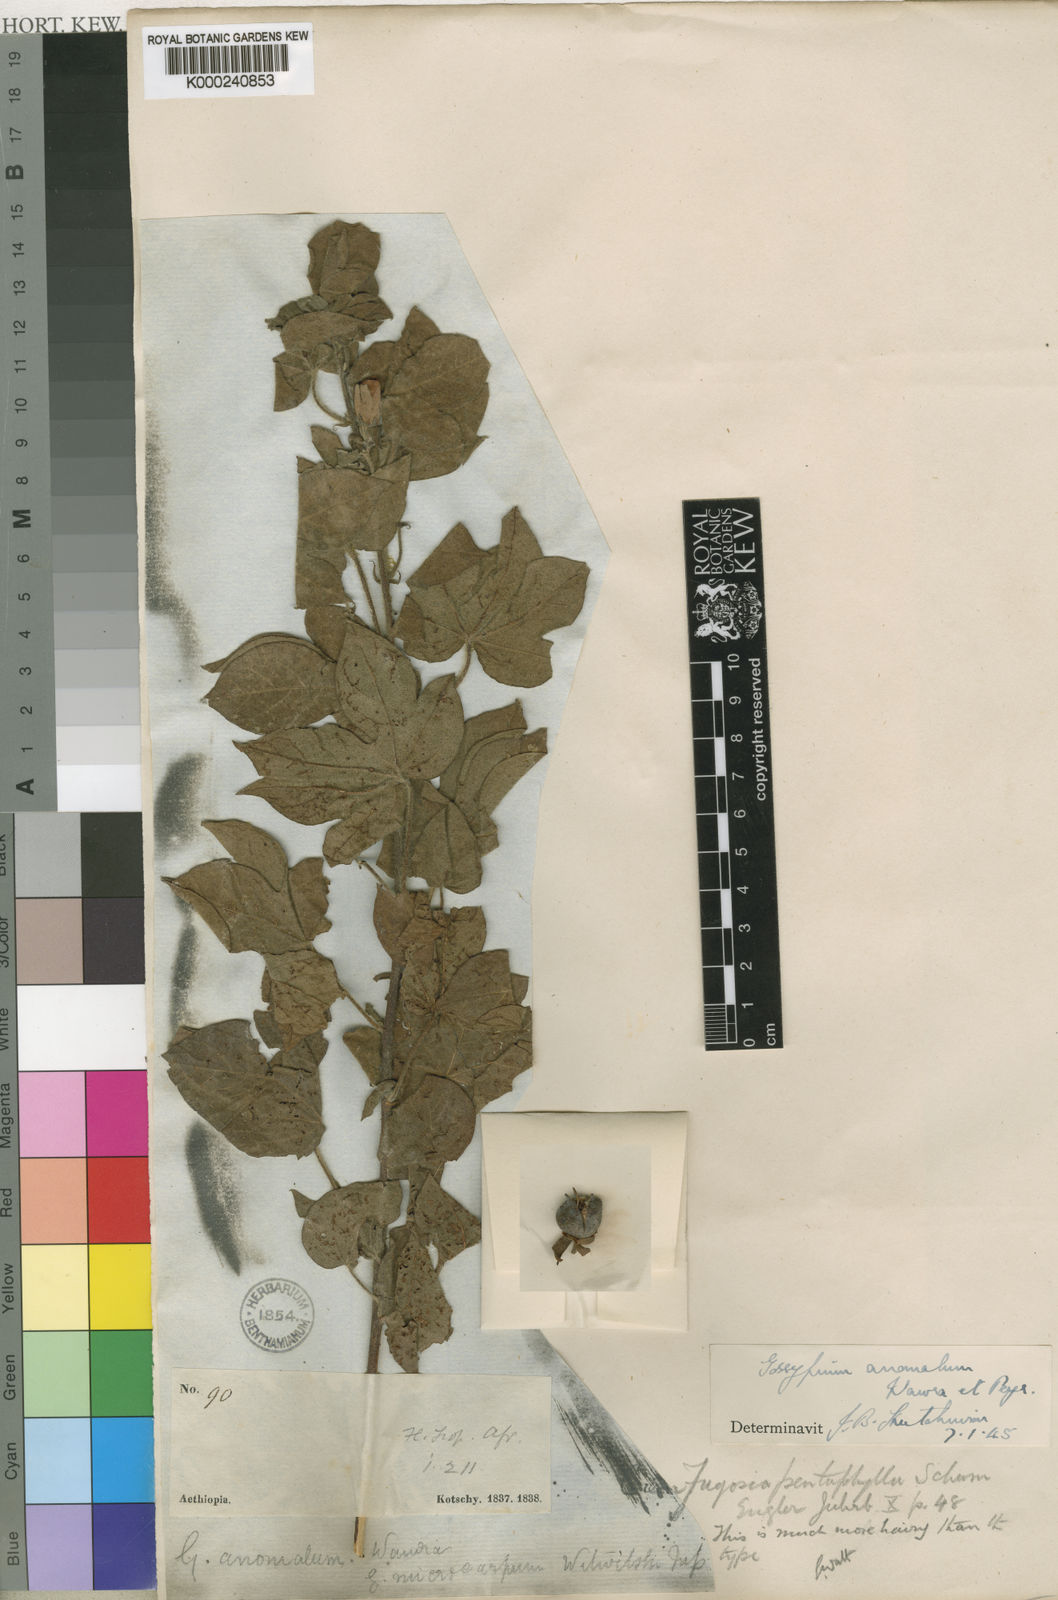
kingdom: Plantae
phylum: Tracheophyta
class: Magnoliopsida
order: Malvales
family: Malvaceae
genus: Gossypium
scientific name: Gossypium anomalum
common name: African wild cotton
